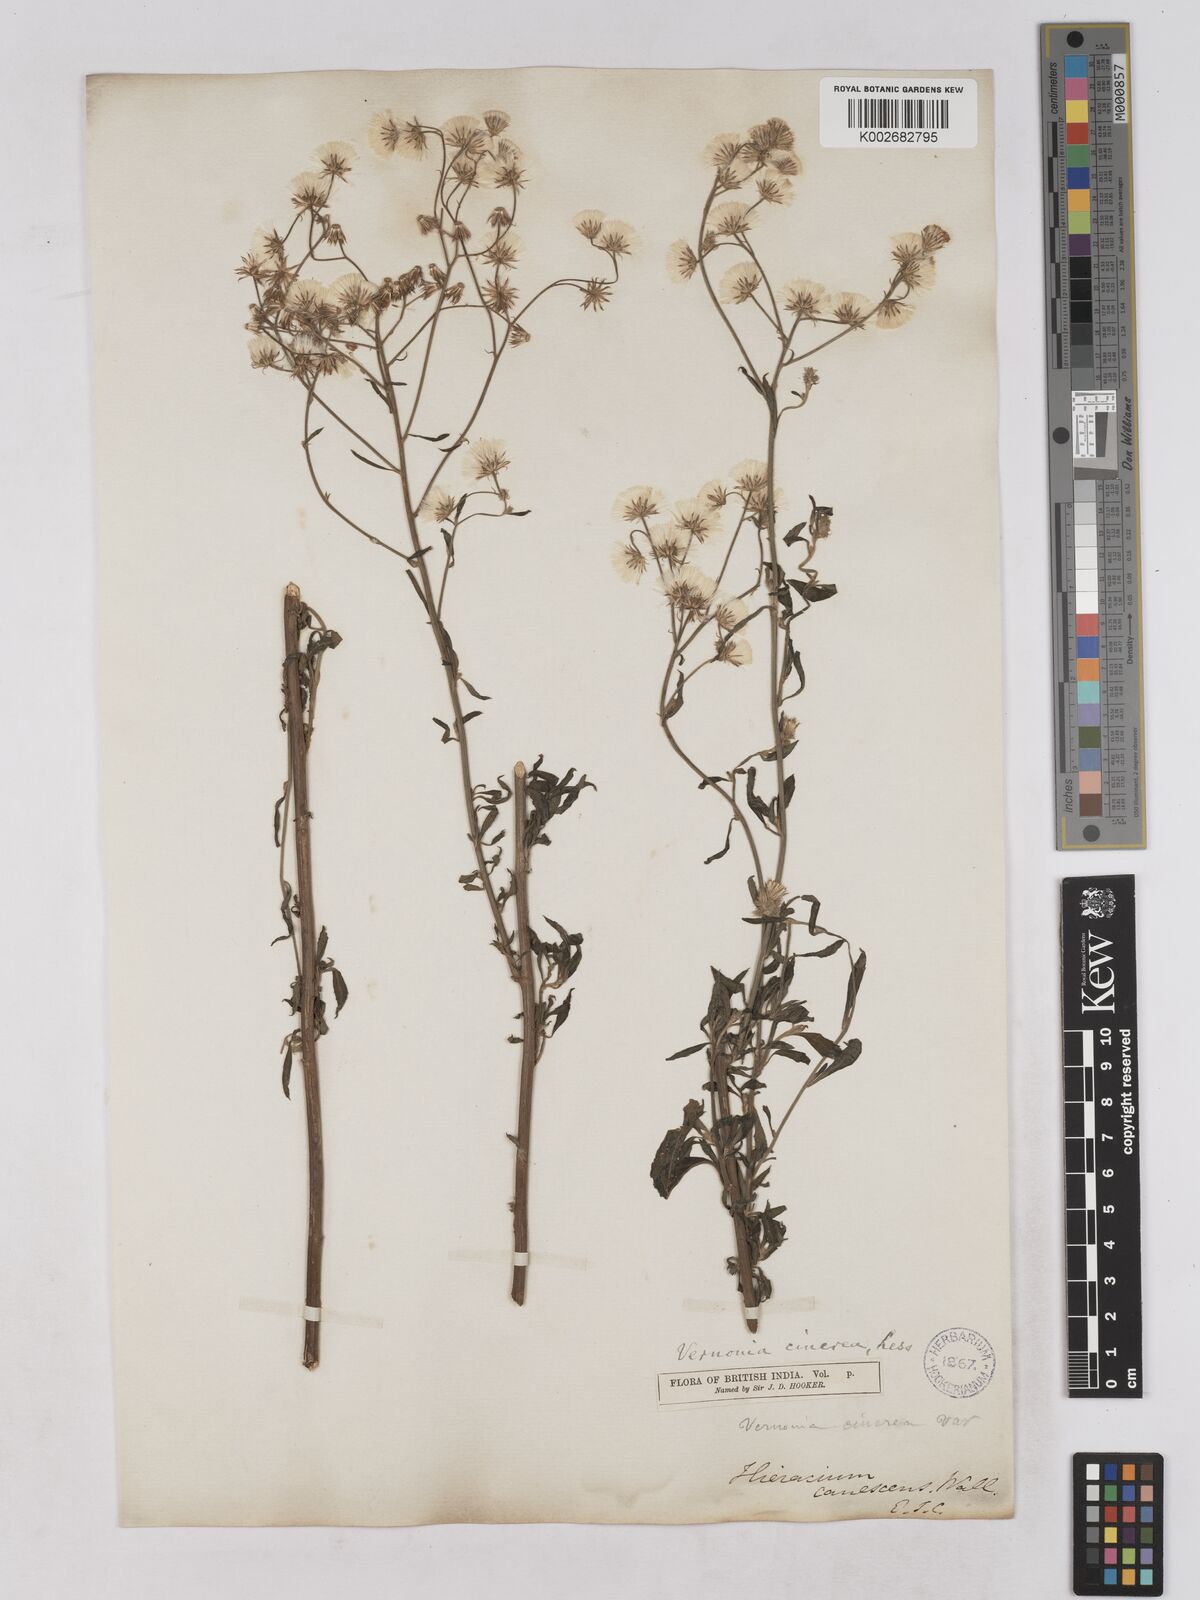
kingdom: Plantae
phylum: Tracheophyta
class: Magnoliopsida
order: Asterales
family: Asteraceae
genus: Cyanthillium
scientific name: Cyanthillium cinereum
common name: Little ironweed
